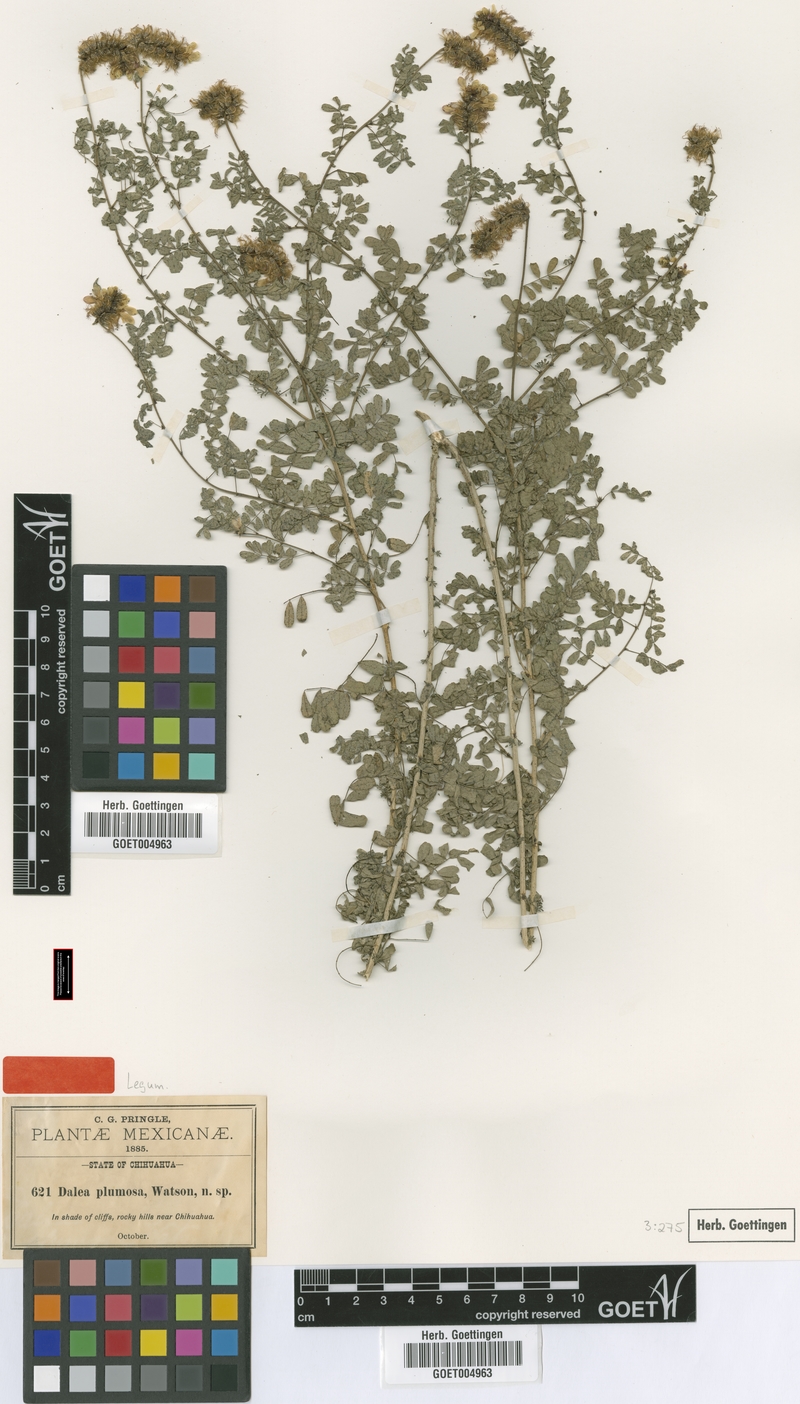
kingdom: Plantae
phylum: Tracheophyta
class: Magnoliopsida
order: Fabales
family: Fabaceae
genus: Dalea
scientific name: Dalea lutea
